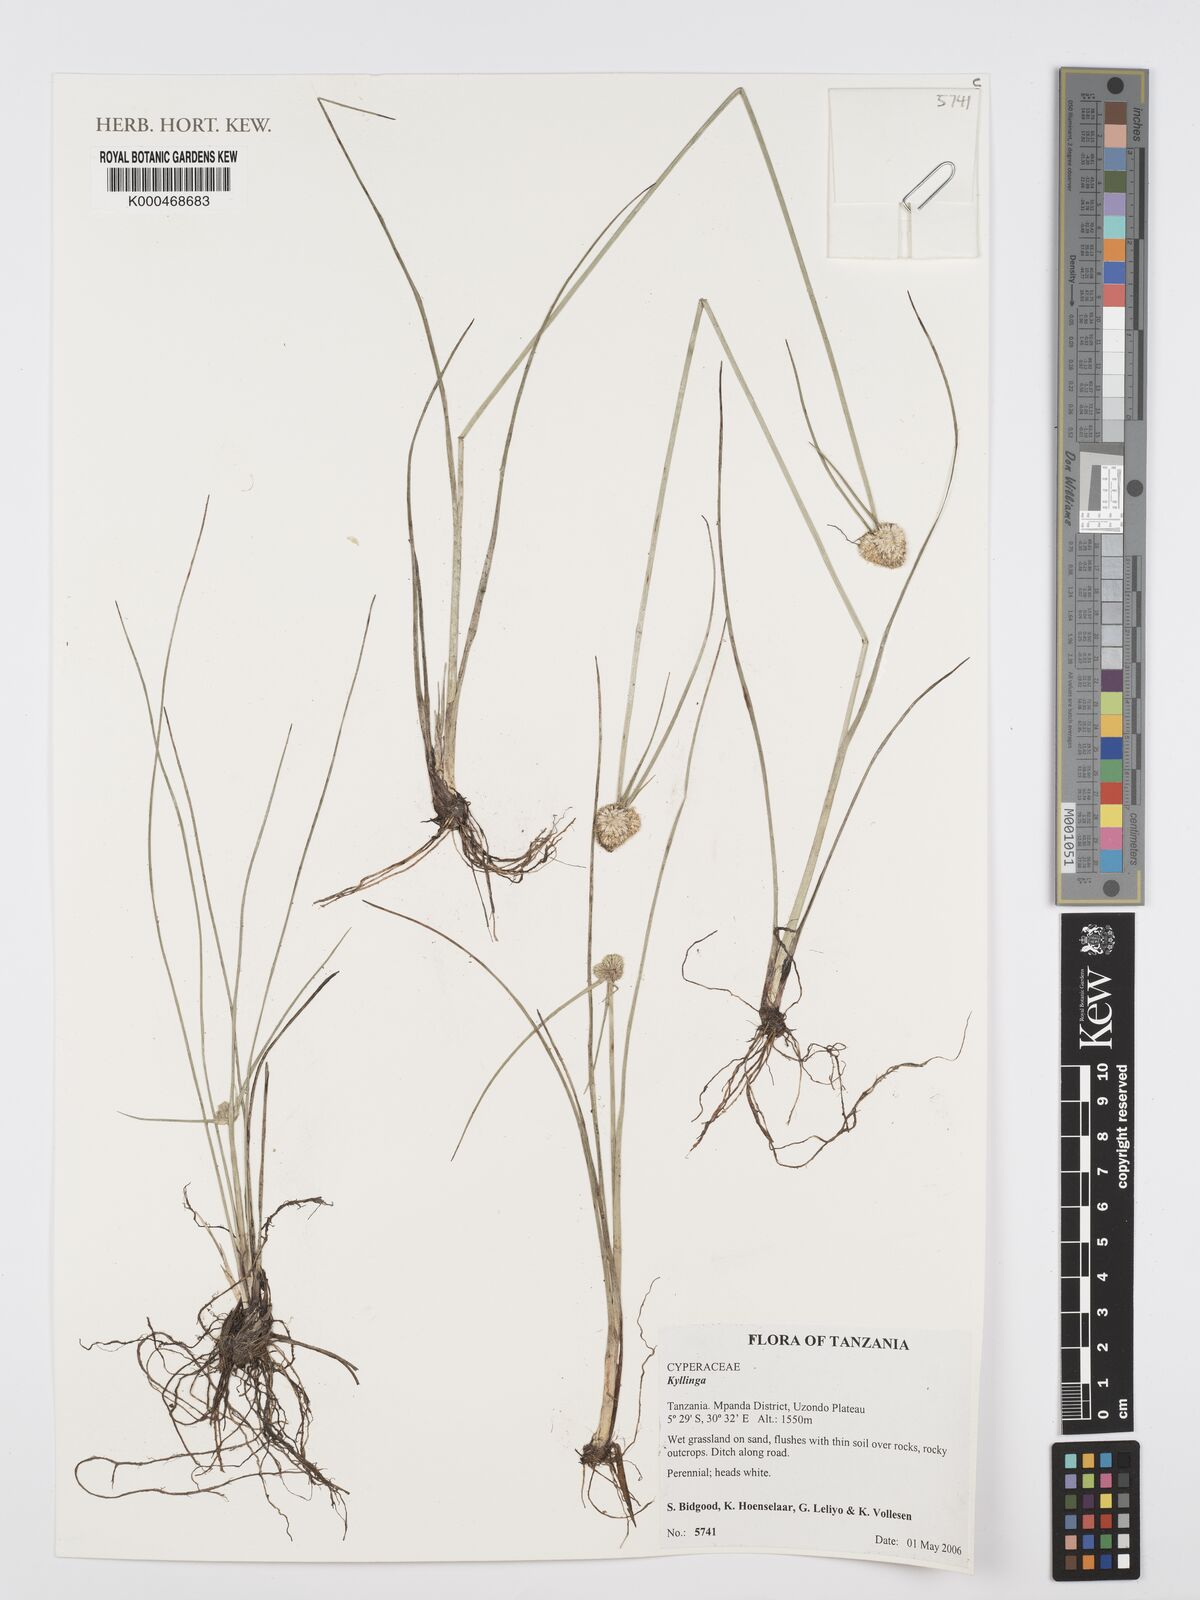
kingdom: Plantae
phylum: Tracheophyta
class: Liliopsida
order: Poales
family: Cyperaceae
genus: Cyperus
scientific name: Cyperus
